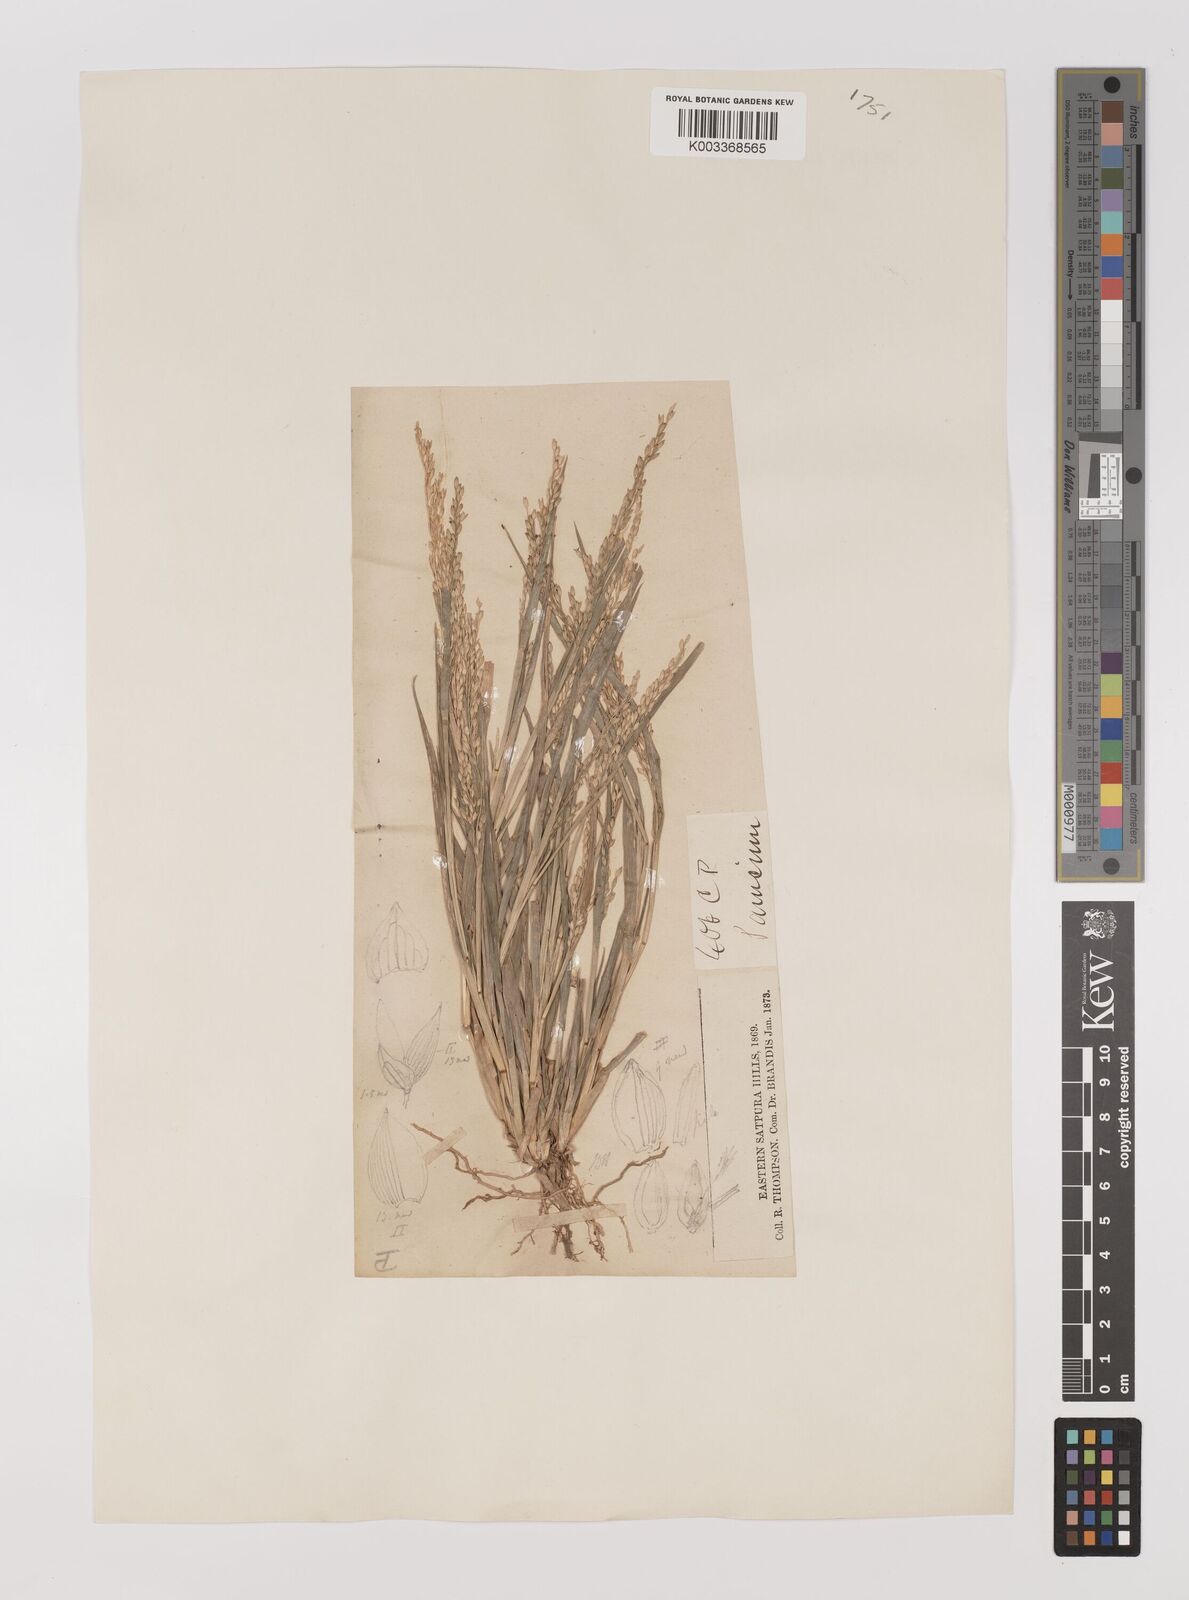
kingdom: Plantae
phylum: Tracheophyta
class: Liliopsida
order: Poales
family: Poaceae
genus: Panicum
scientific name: Panicum sumatrense
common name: Little millet
